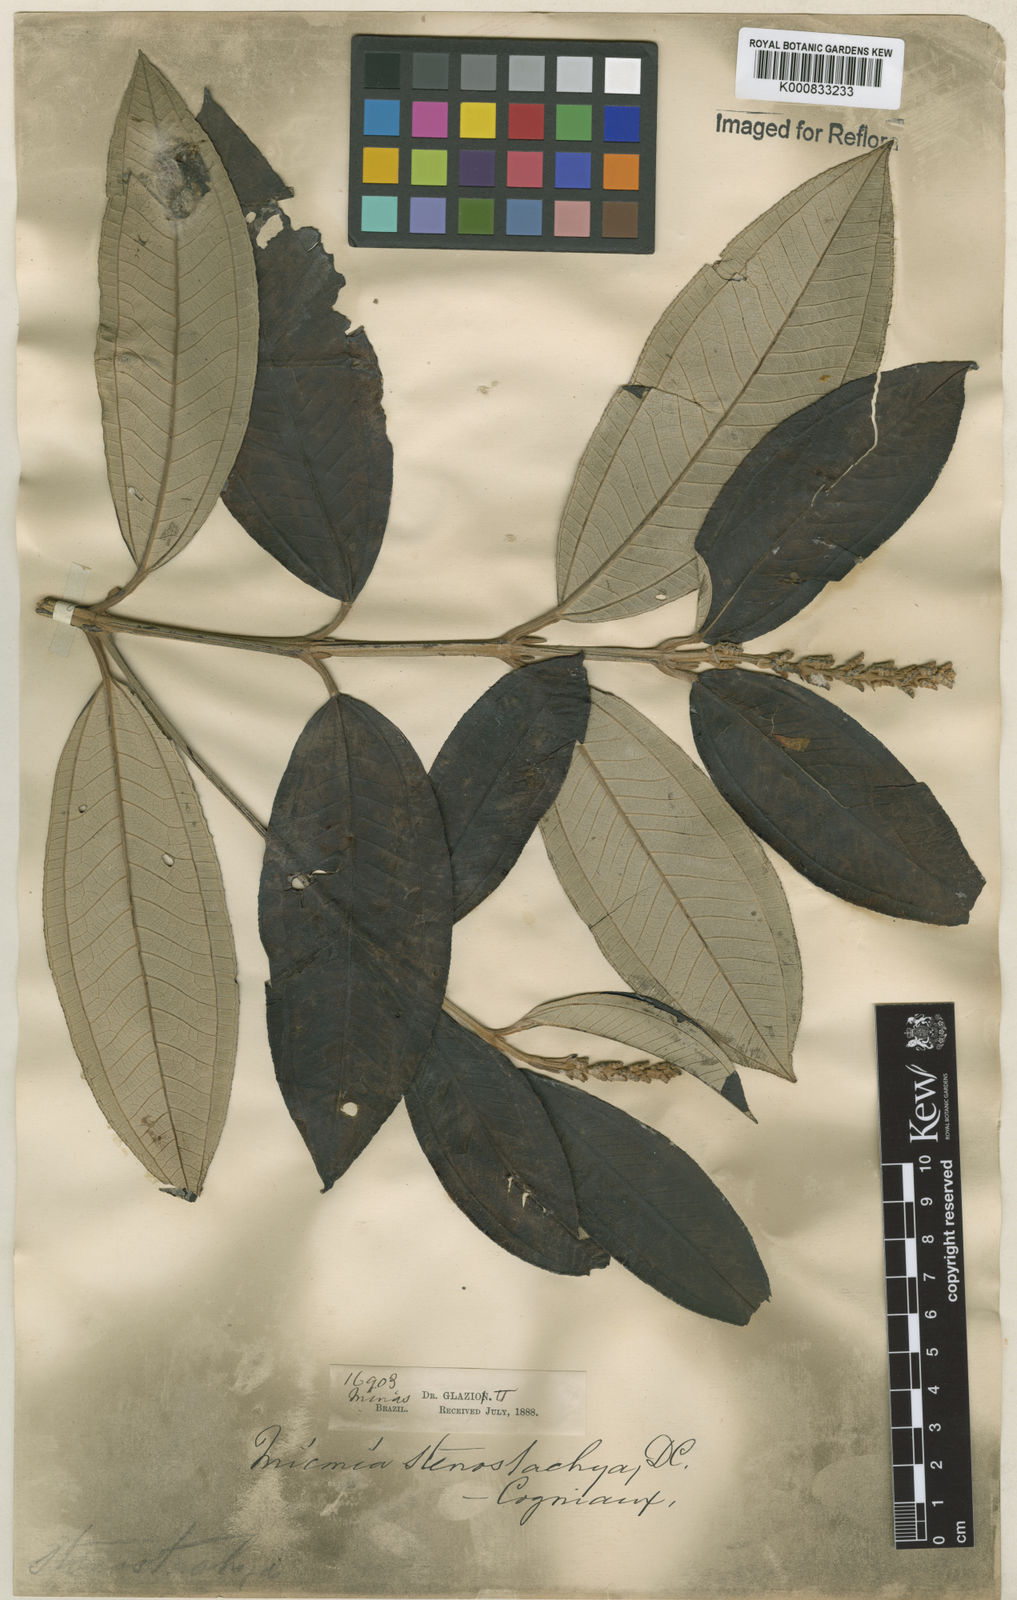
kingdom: Plantae
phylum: Tracheophyta
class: Magnoliopsida
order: Myrtales
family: Melastomataceae
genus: Miconia
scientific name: Miconia stenostachya
